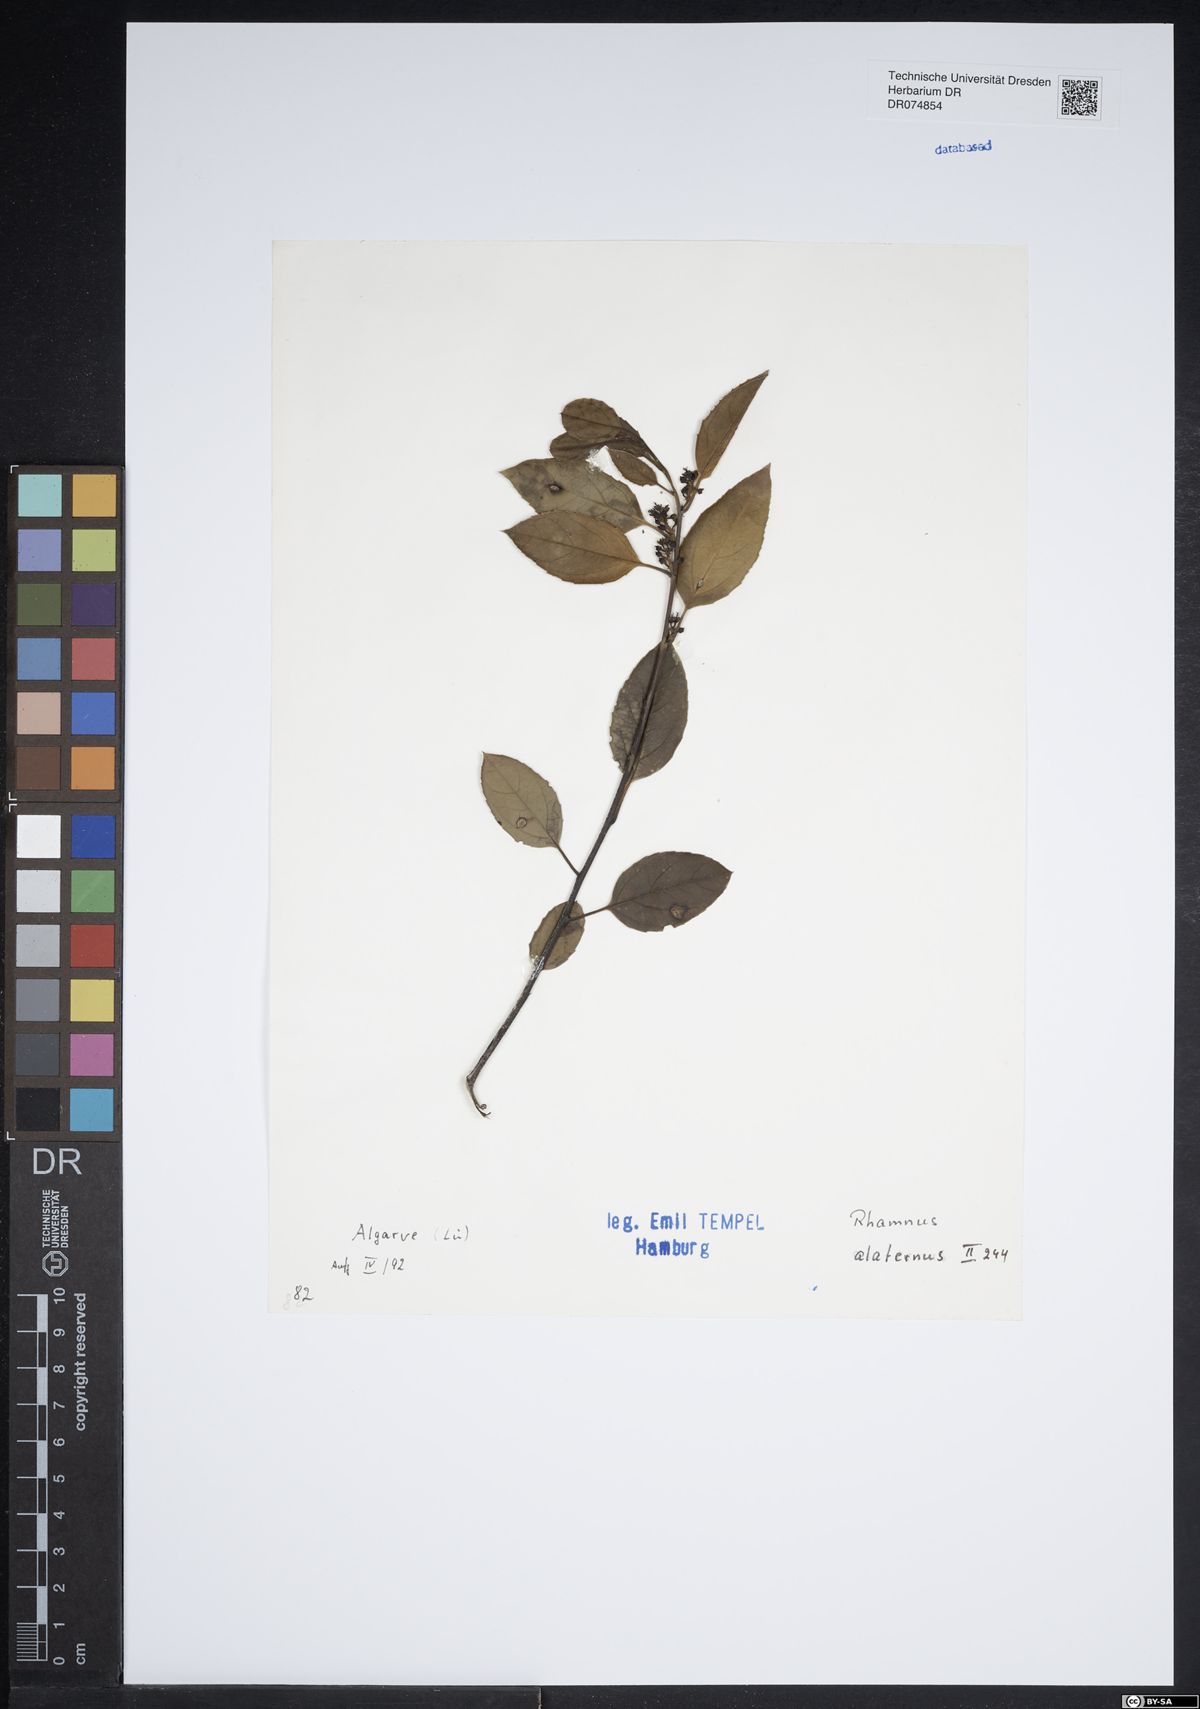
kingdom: Plantae
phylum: Tracheophyta
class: Magnoliopsida
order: Rosales
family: Rhamnaceae
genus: Rhamnus
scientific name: Rhamnus alaternus
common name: Mediterranean buckthorn
